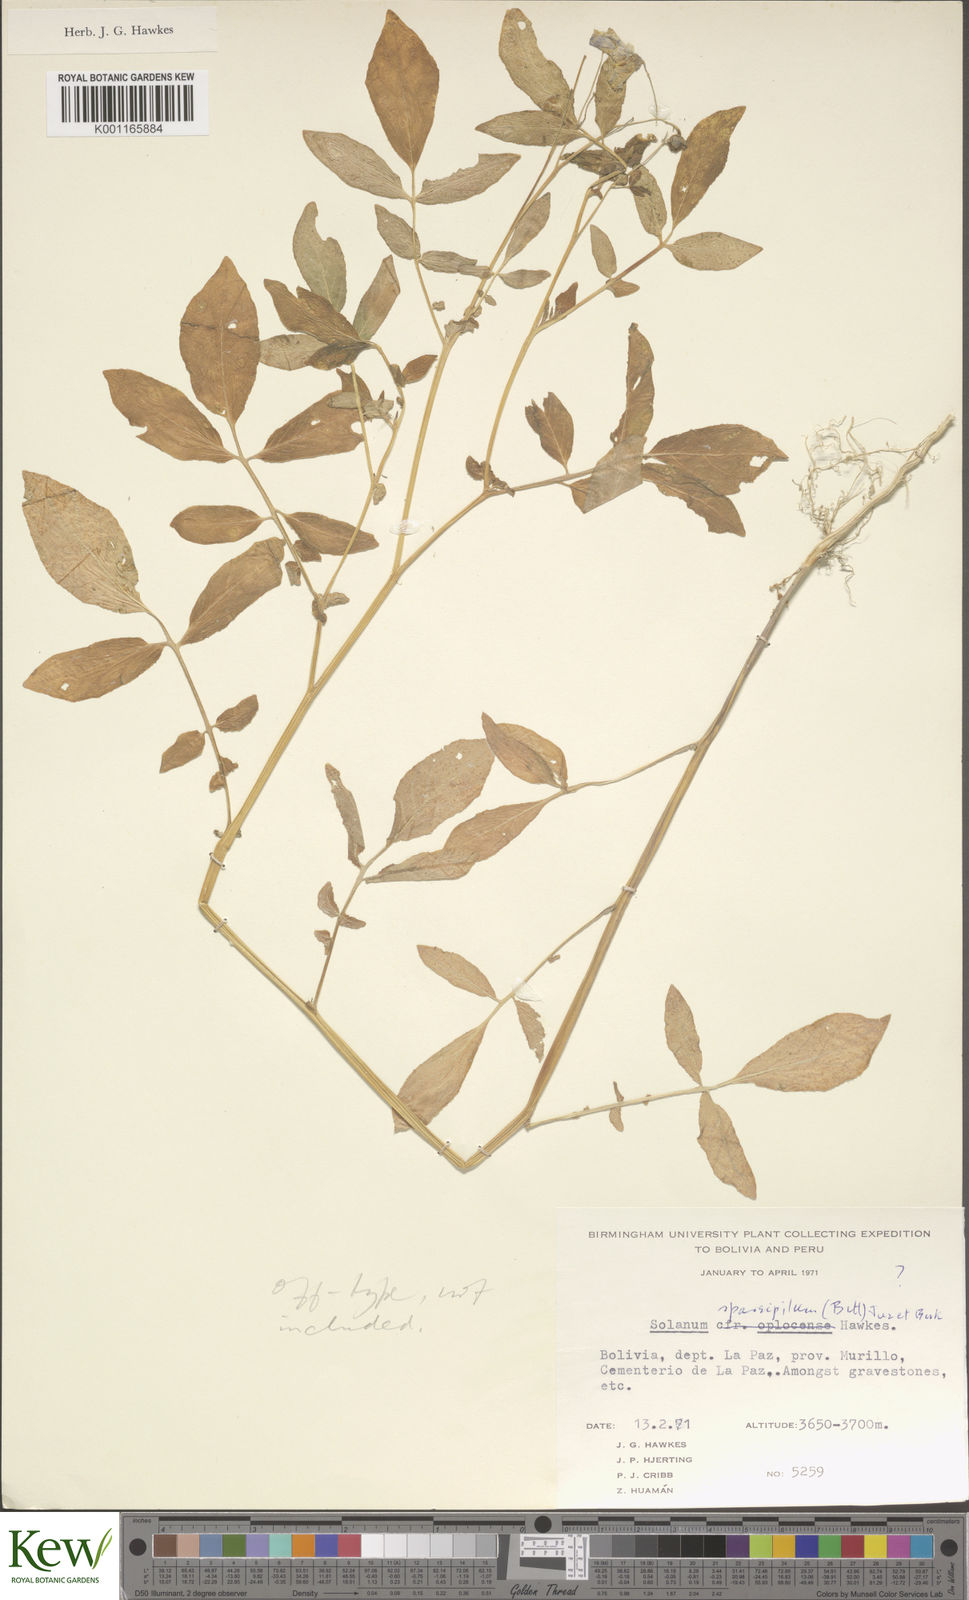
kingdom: Plantae
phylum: Tracheophyta
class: Magnoliopsida
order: Solanales
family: Solanaceae
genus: Solanum
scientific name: Solanum brevicaule
